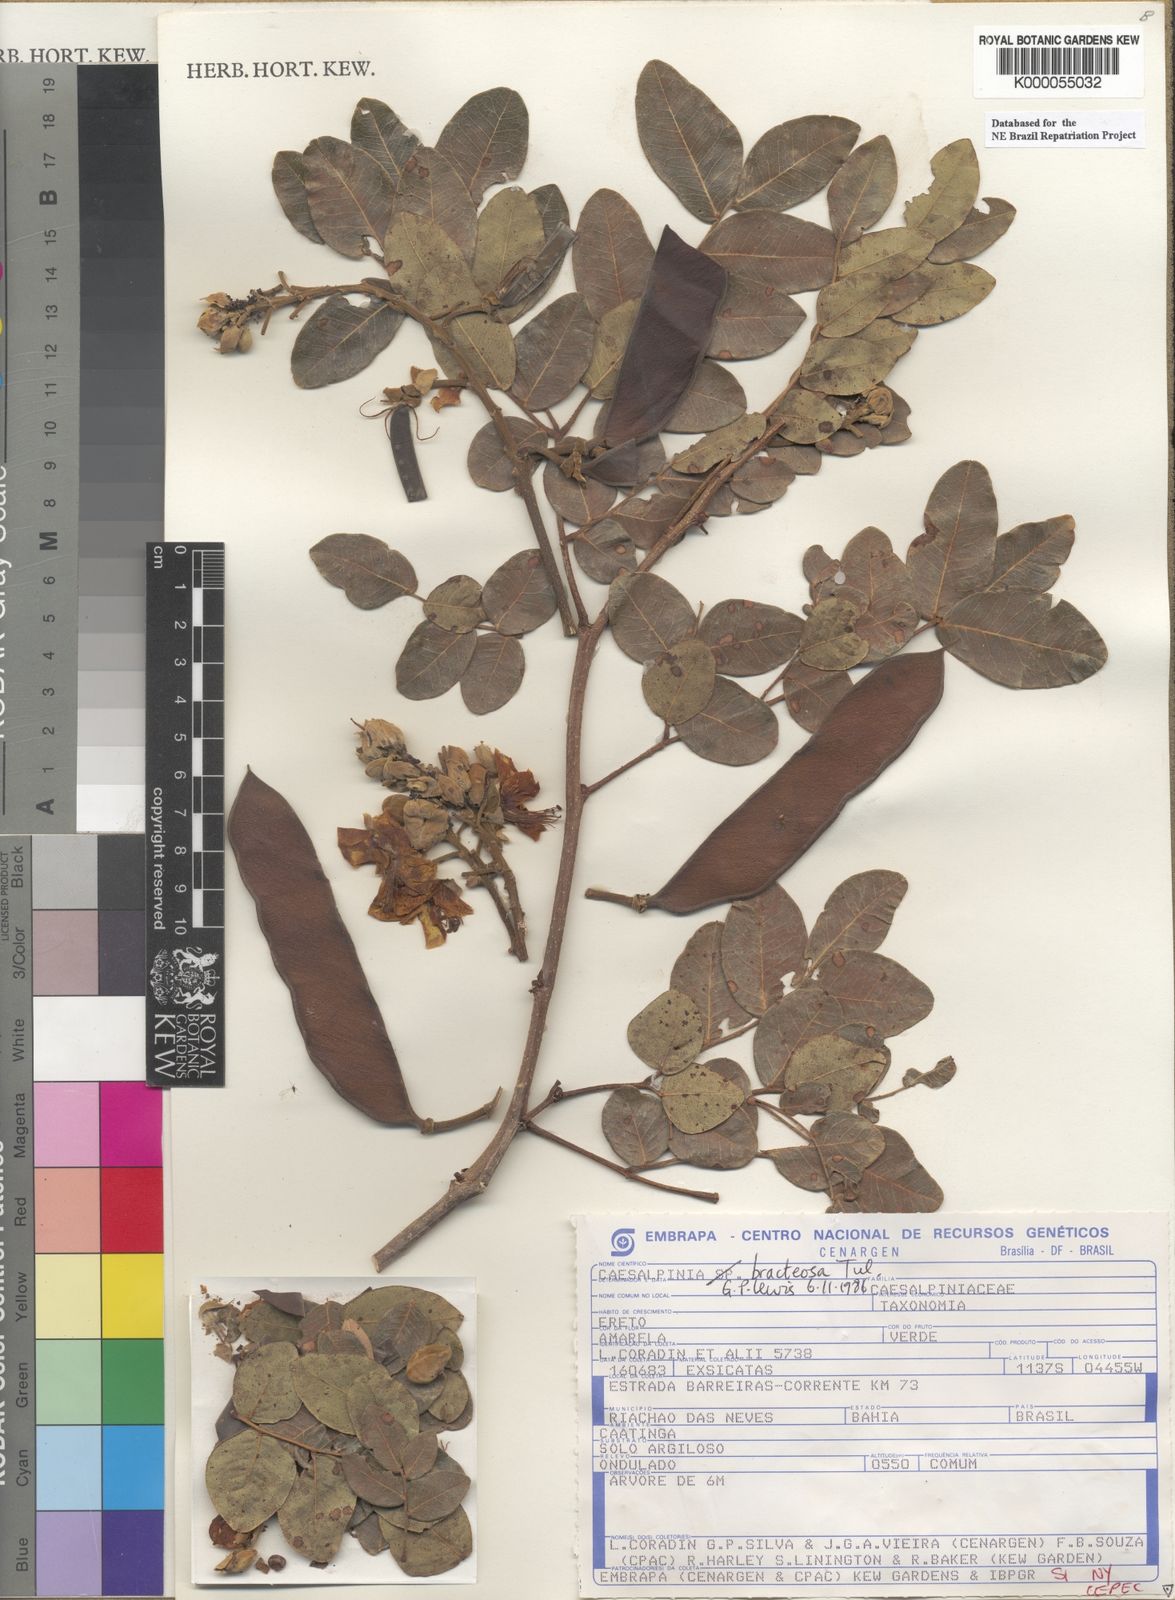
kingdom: Plantae
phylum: Tracheophyta
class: Magnoliopsida
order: Fabales
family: Fabaceae
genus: Cenostigma
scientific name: Cenostigma bracteosum
